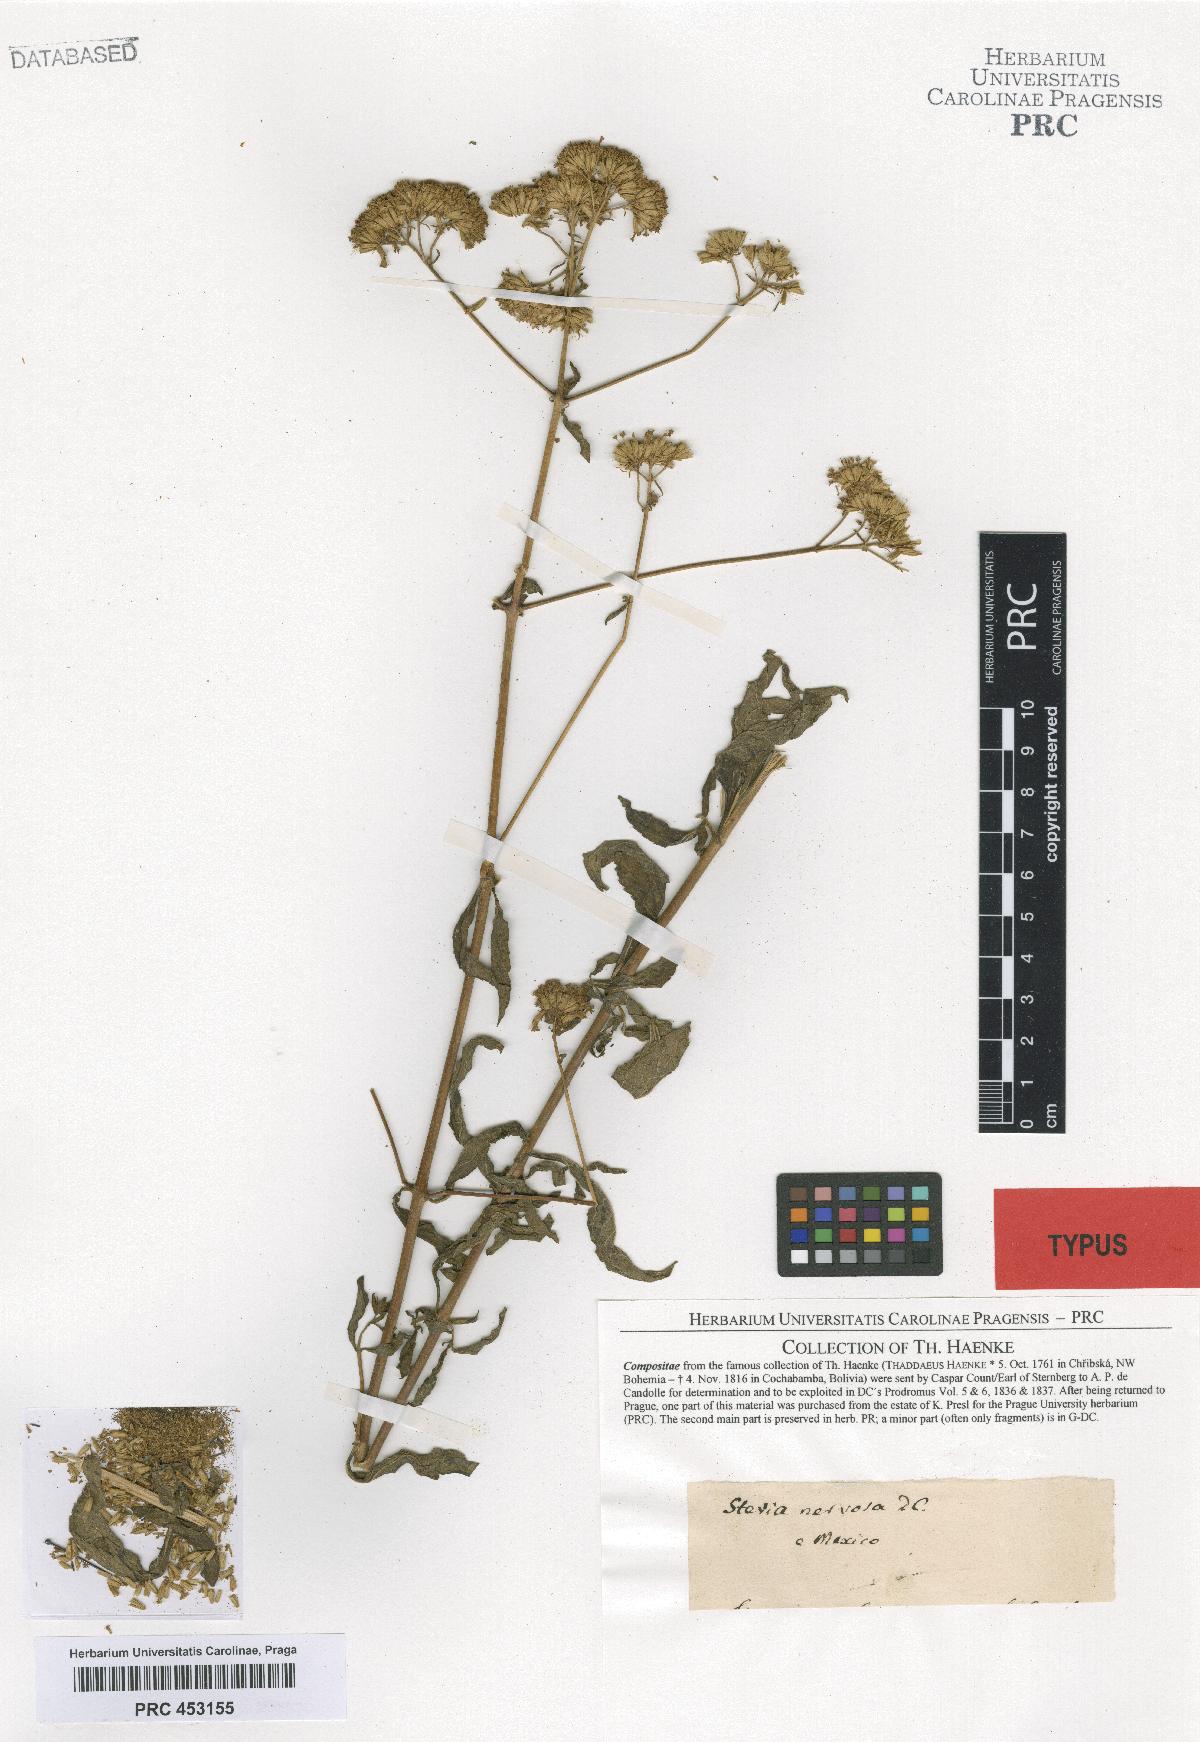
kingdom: Plantae
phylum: Tracheophyta
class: Magnoliopsida
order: Asterales
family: Asteraceae
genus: Stevia
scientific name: Stevia ovata
